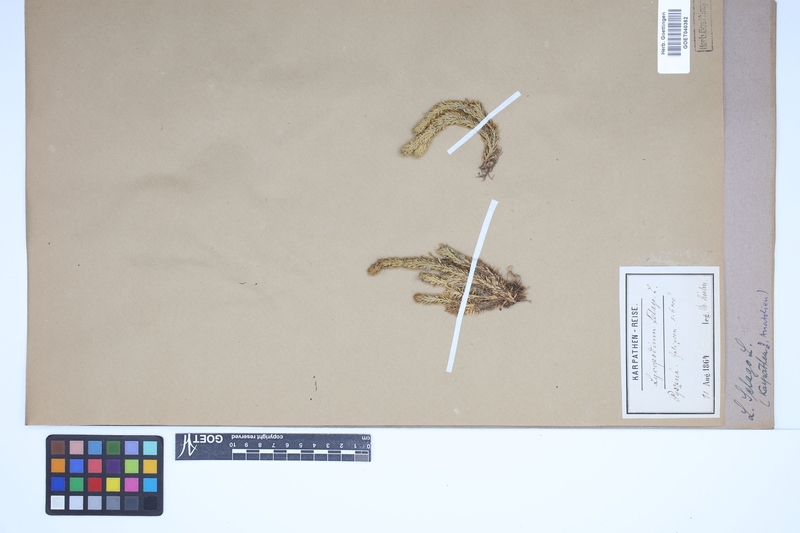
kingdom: Plantae
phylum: Tracheophyta
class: Lycopodiopsida
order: Lycopodiales
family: Lycopodiaceae
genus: Huperzia
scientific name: Huperzia selago
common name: Northern firmoss
